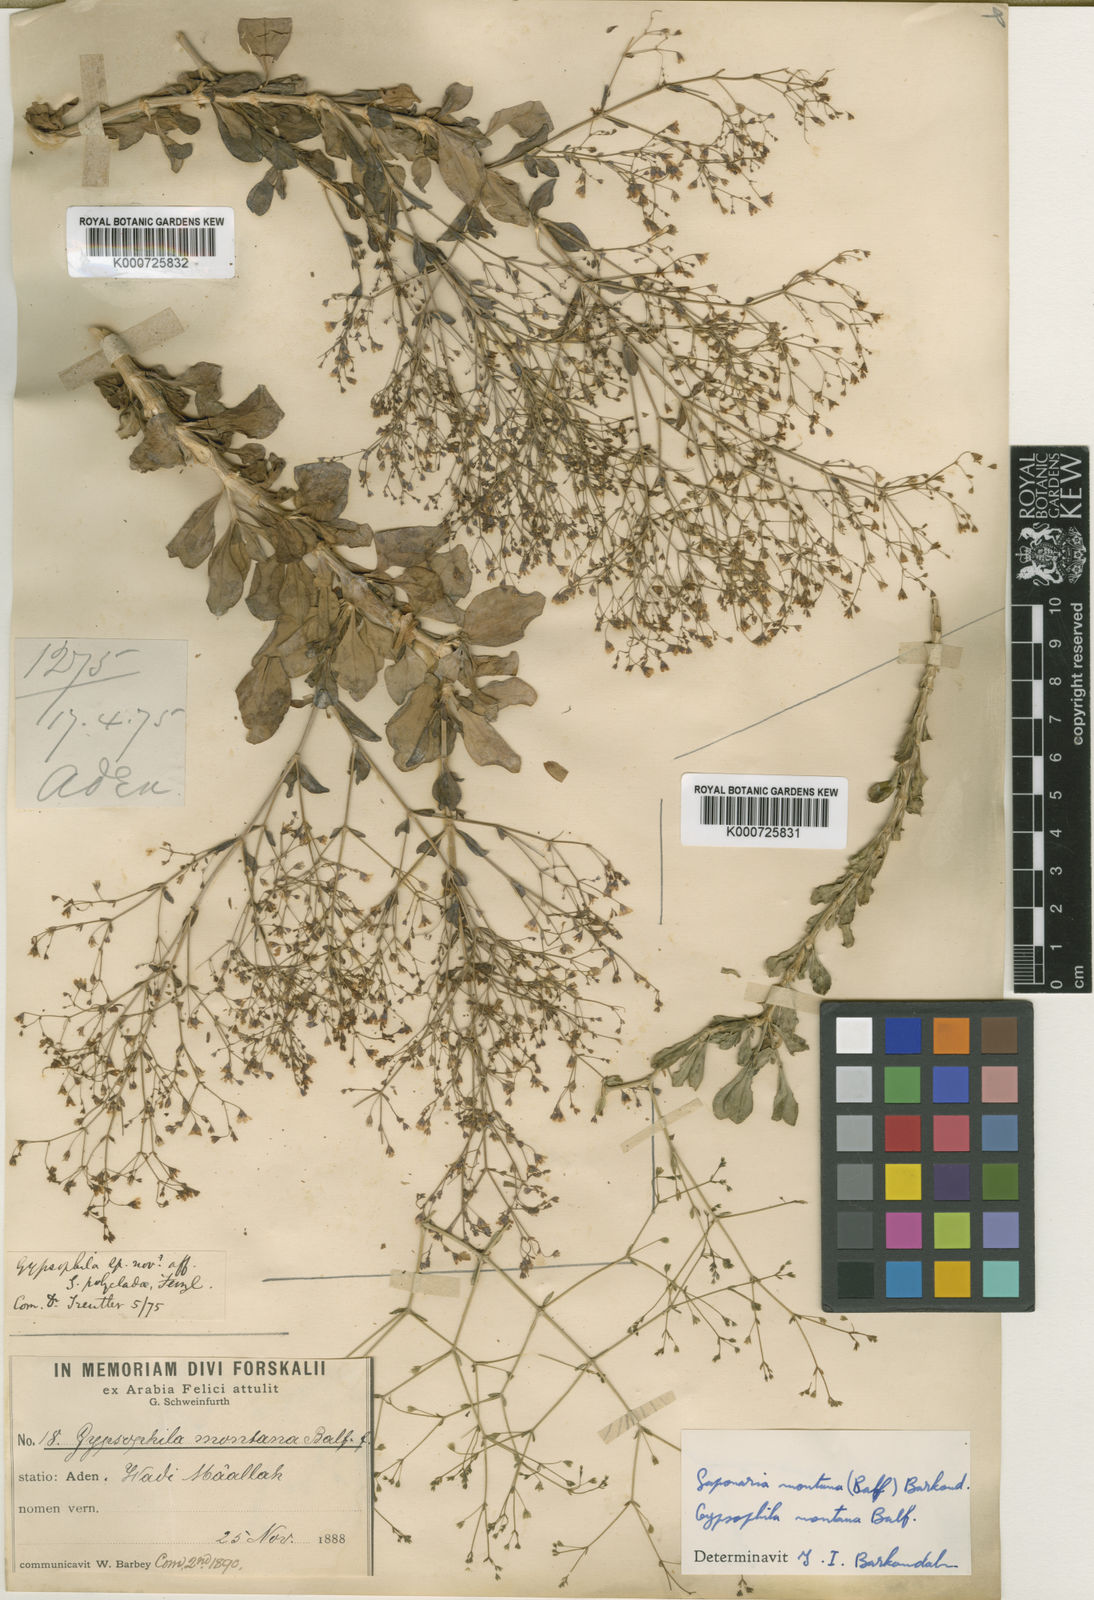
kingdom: Plantae
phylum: Tracheophyta
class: Magnoliopsida
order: Caryophyllales
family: Caryophyllaceae
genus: Petroana
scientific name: Petroana montana
